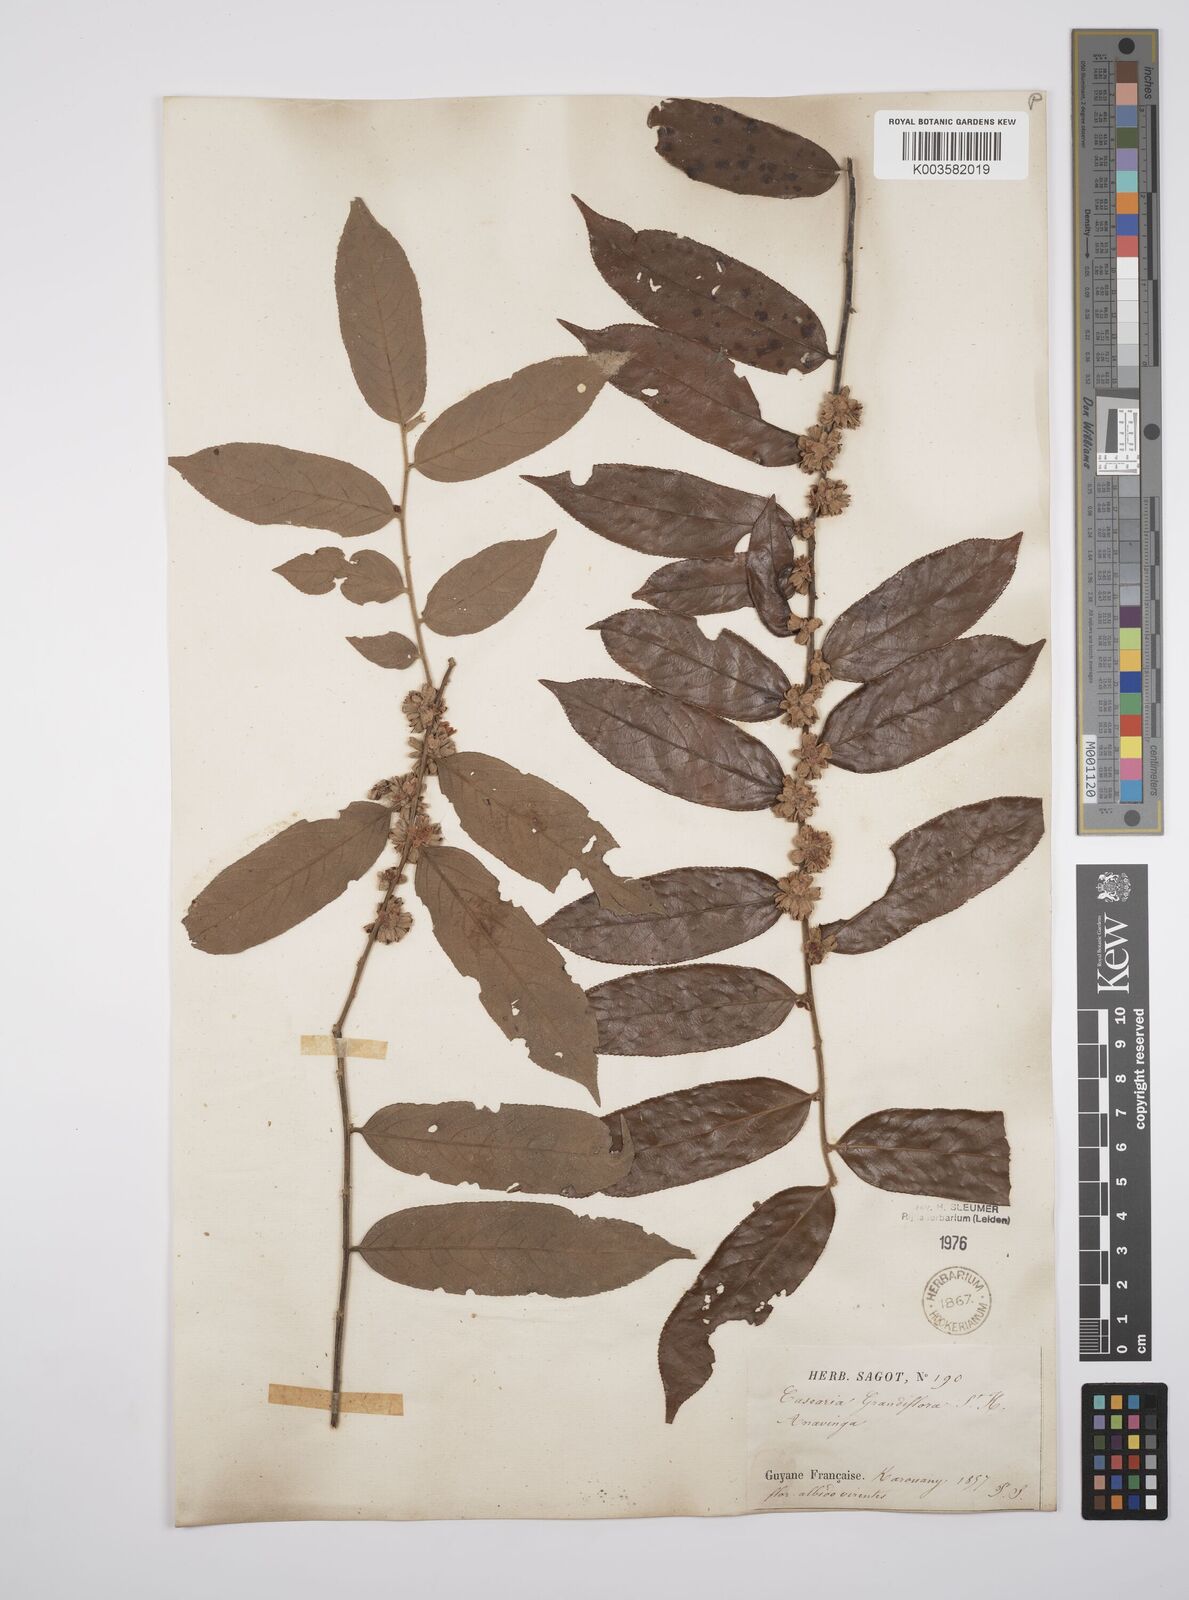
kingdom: Plantae
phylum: Tracheophyta
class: Magnoliopsida
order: Malpighiales
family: Salicaceae
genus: Casearia
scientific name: Casearia grandiflora
